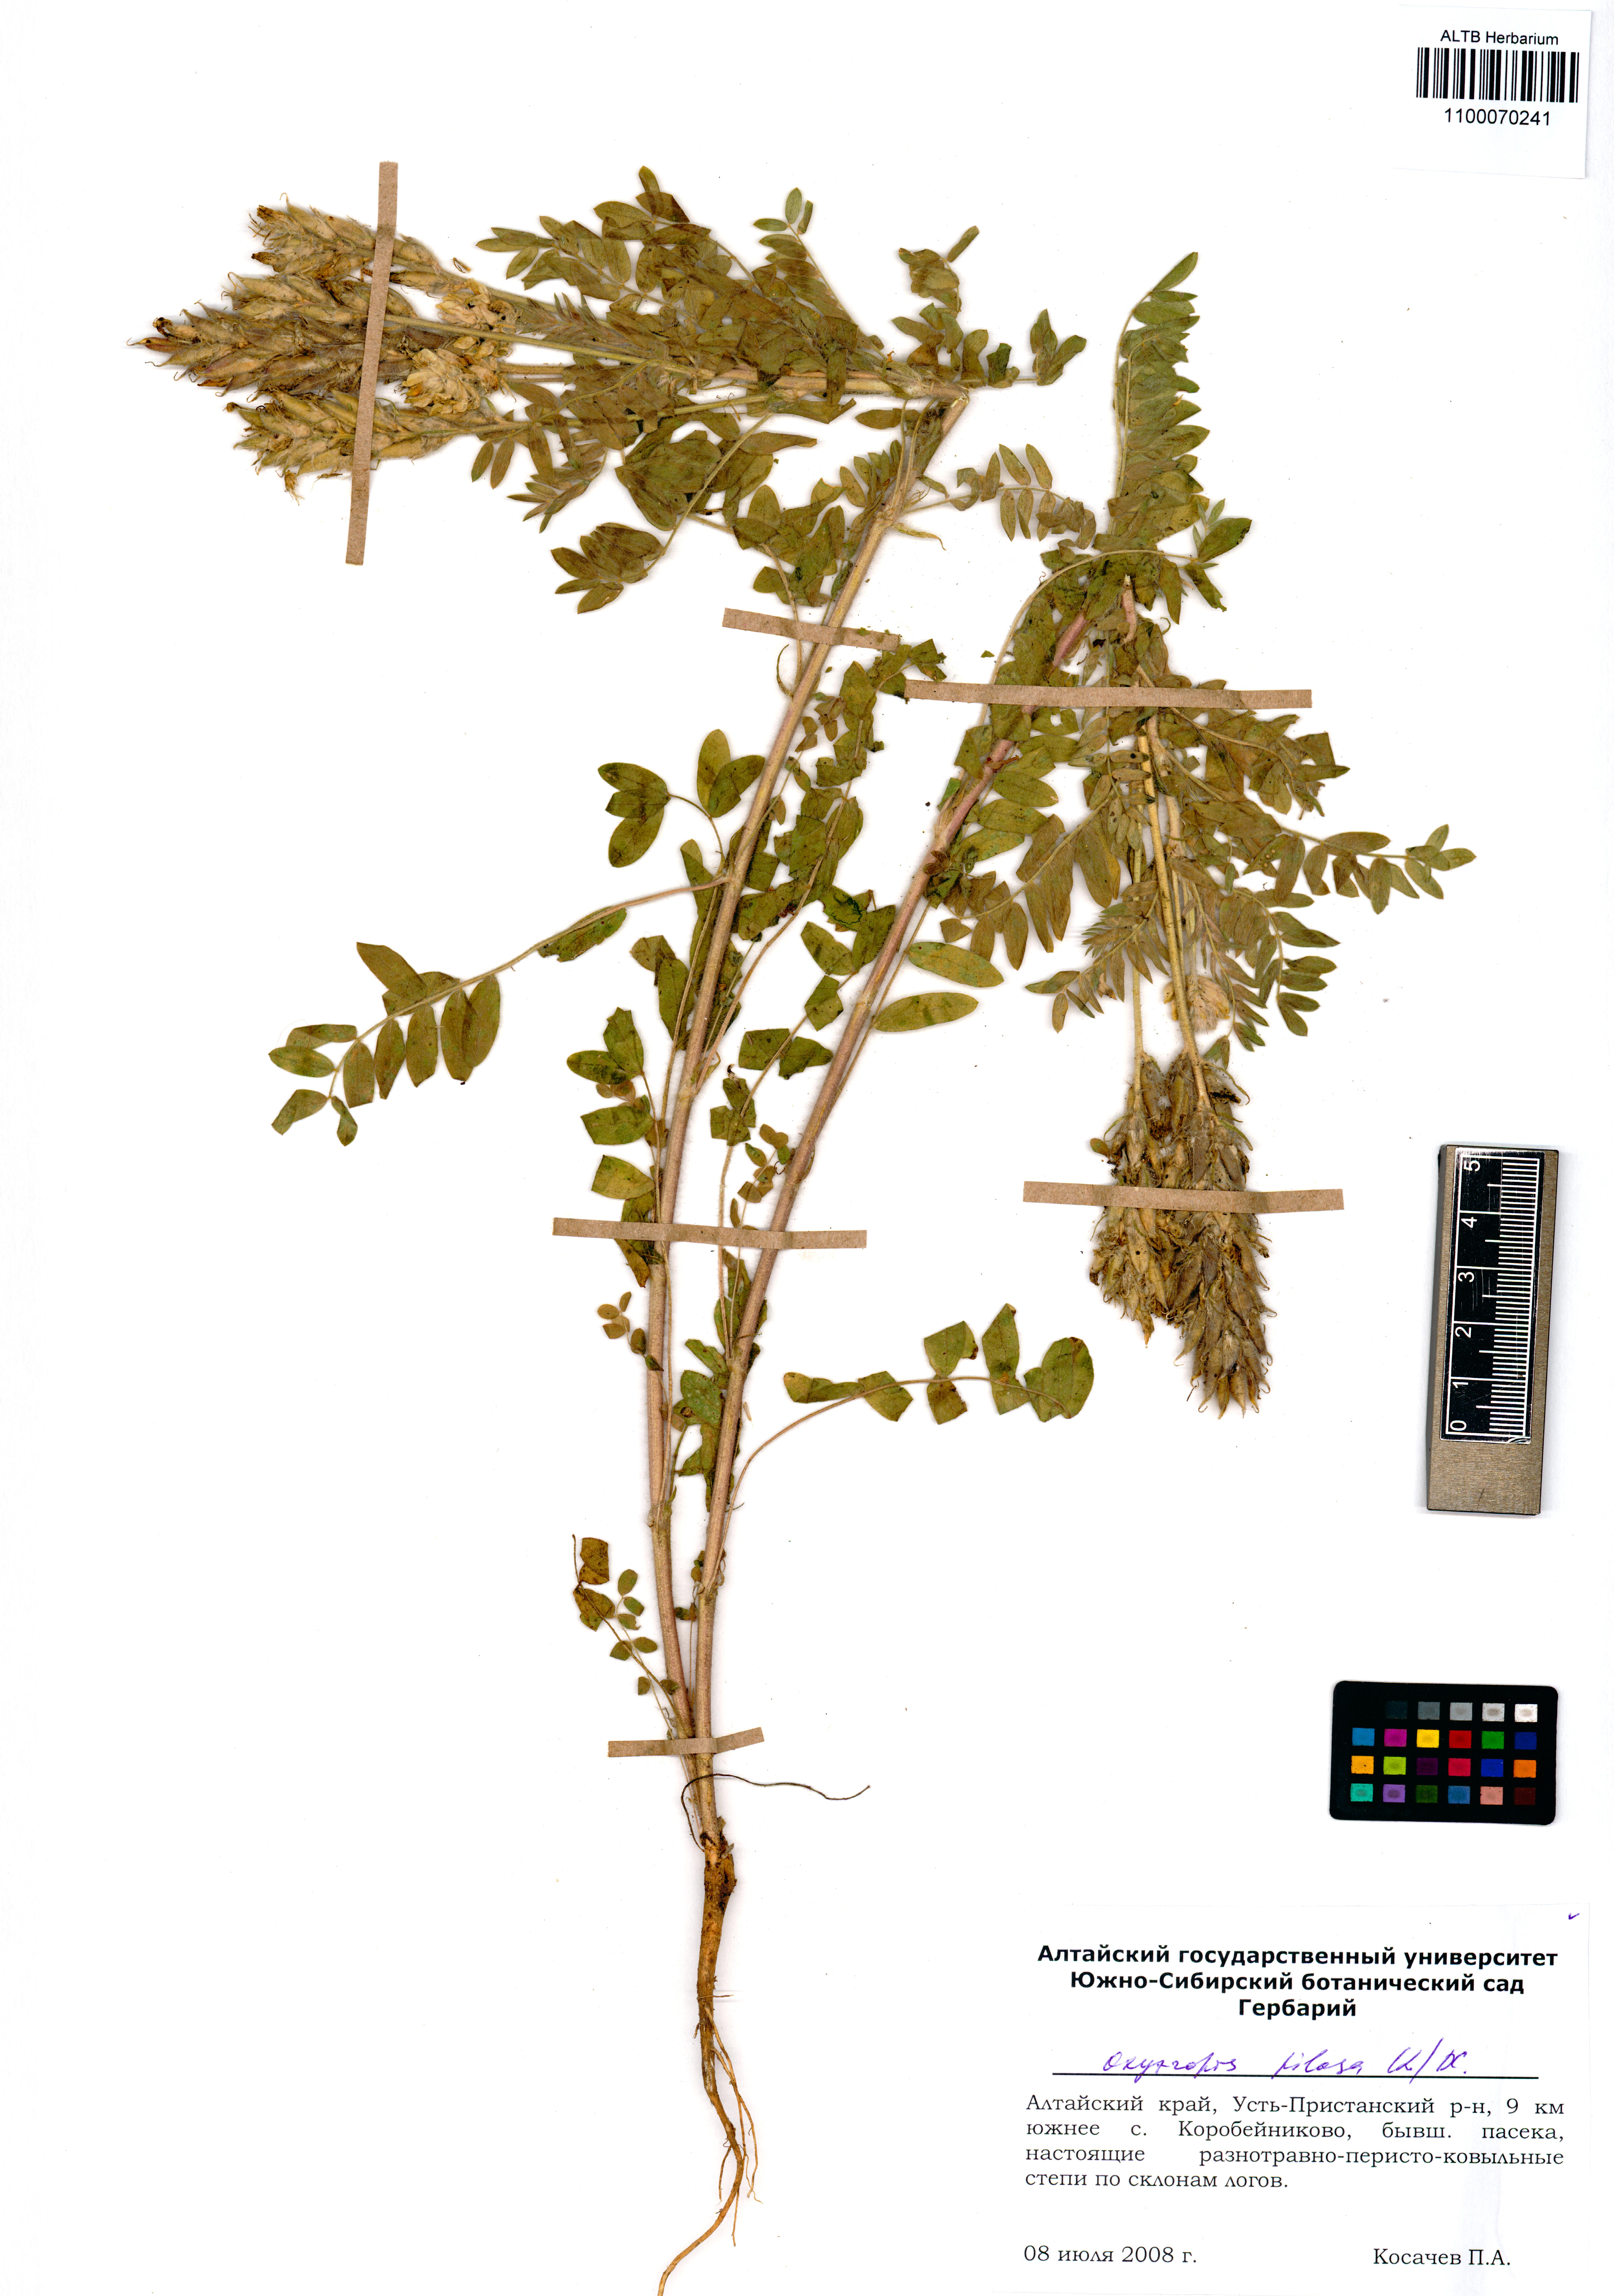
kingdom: Plantae
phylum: Tracheophyta
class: Magnoliopsida
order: Fabales
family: Fabaceae
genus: Oxytropis
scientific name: Oxytropis pilosa
